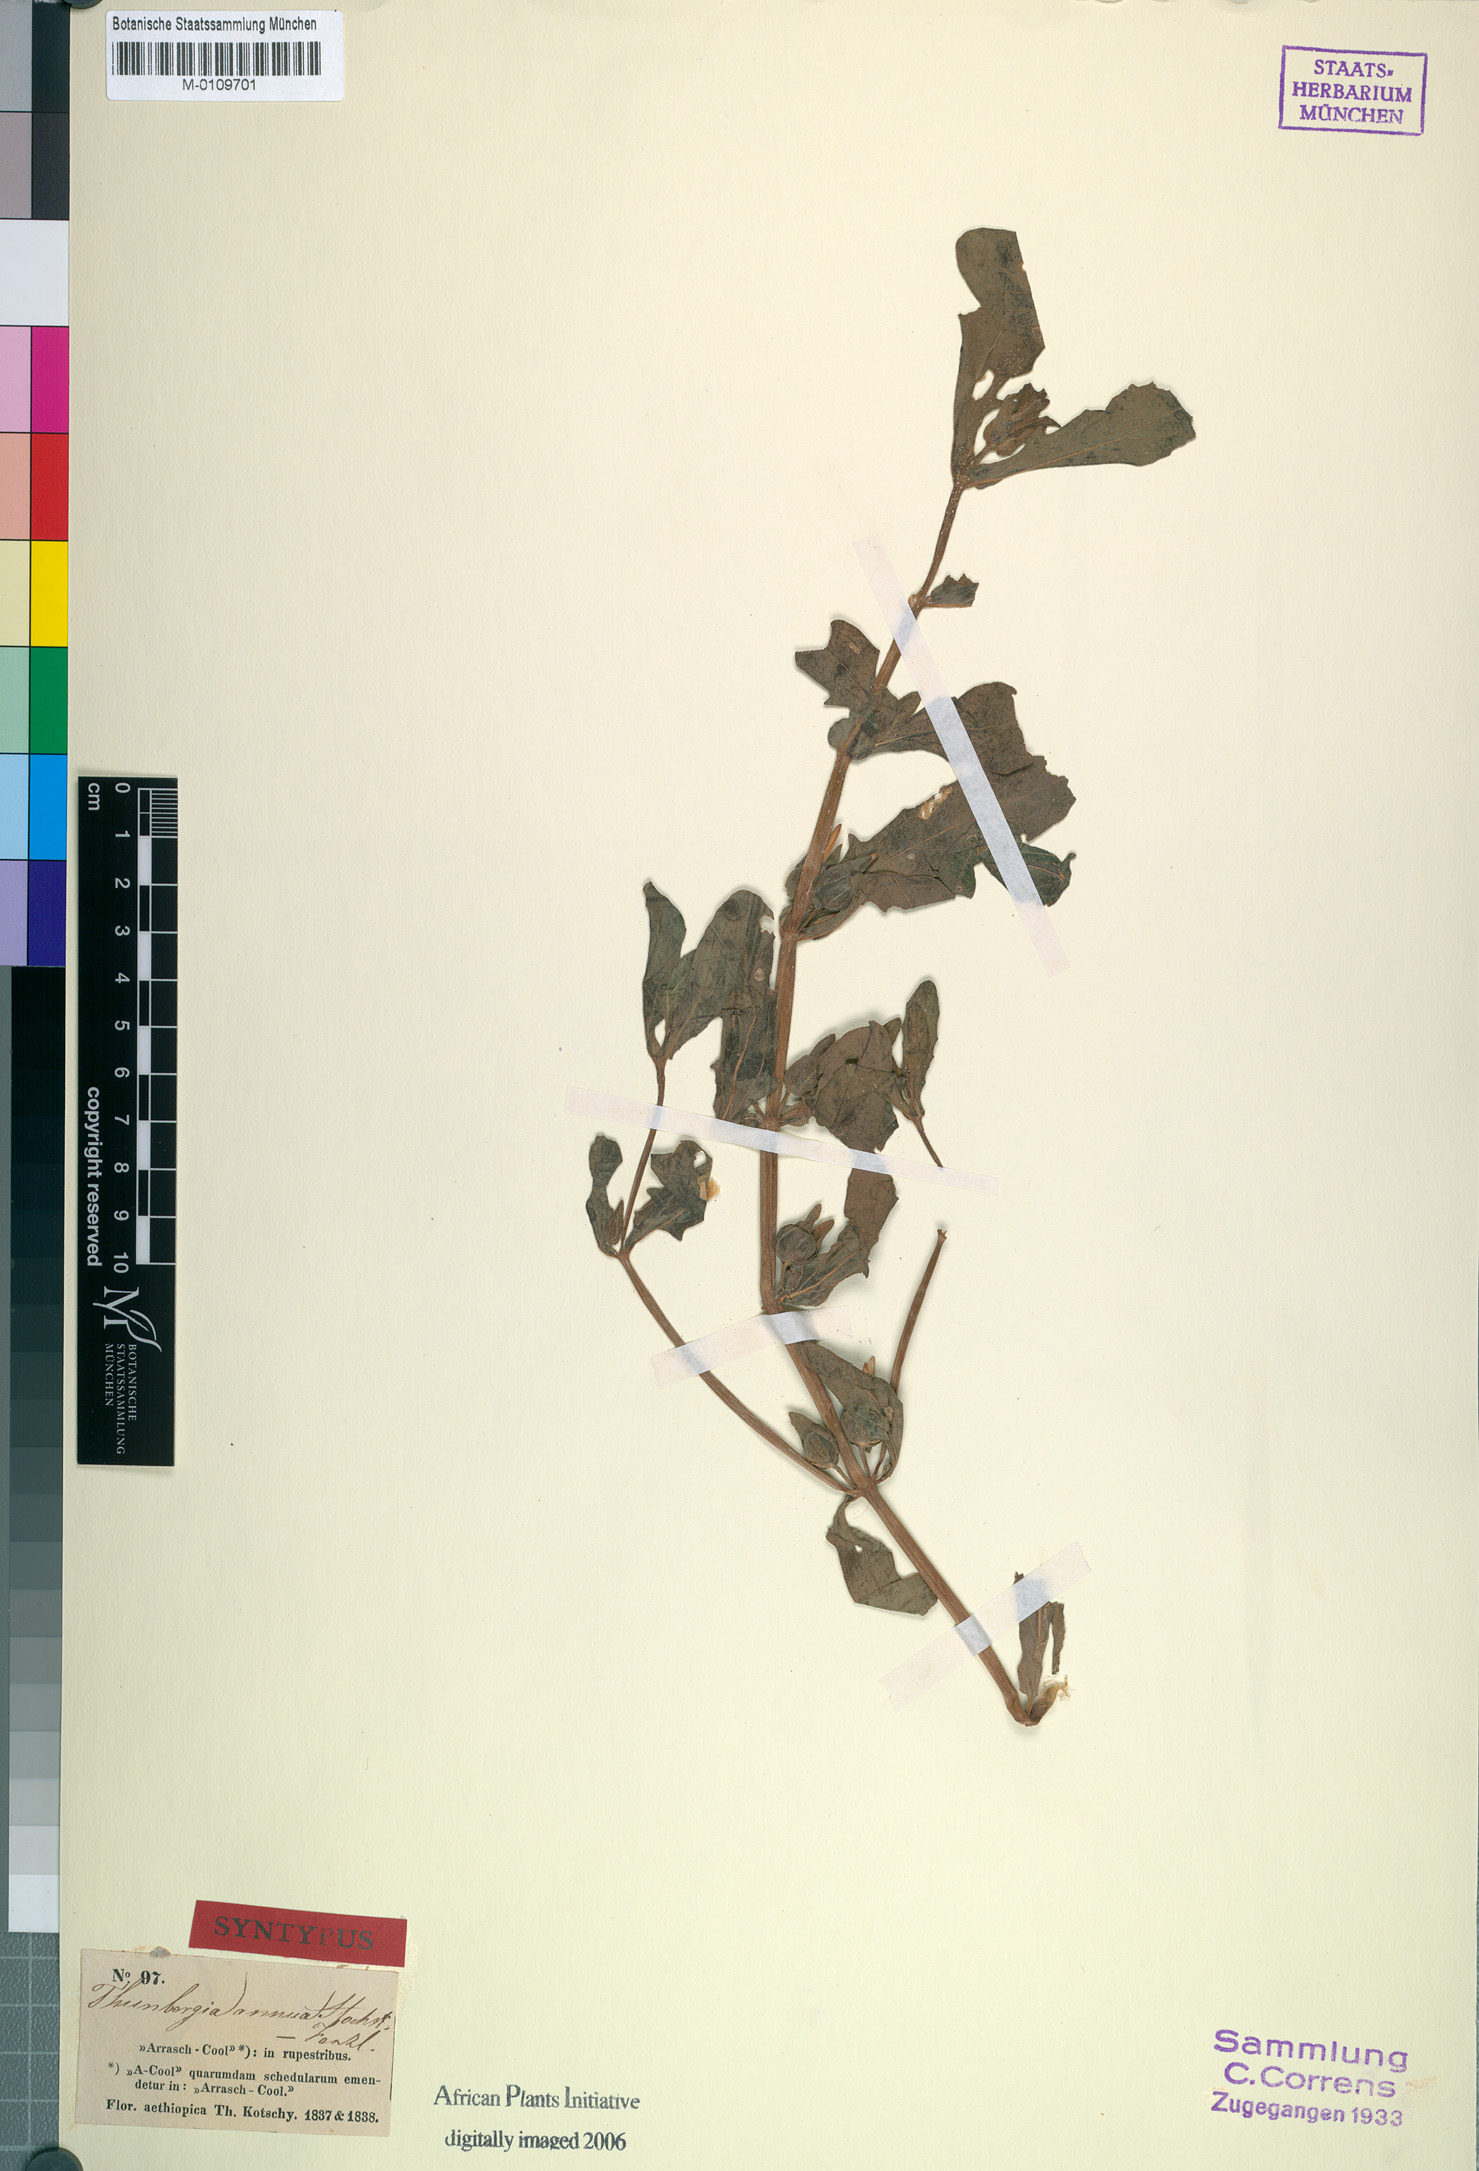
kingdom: Plantae
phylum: Tracheophyta
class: Magnoliopsida
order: Lamiales
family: Acanthaceae
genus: Thunbergia
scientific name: Thunbergia annua
